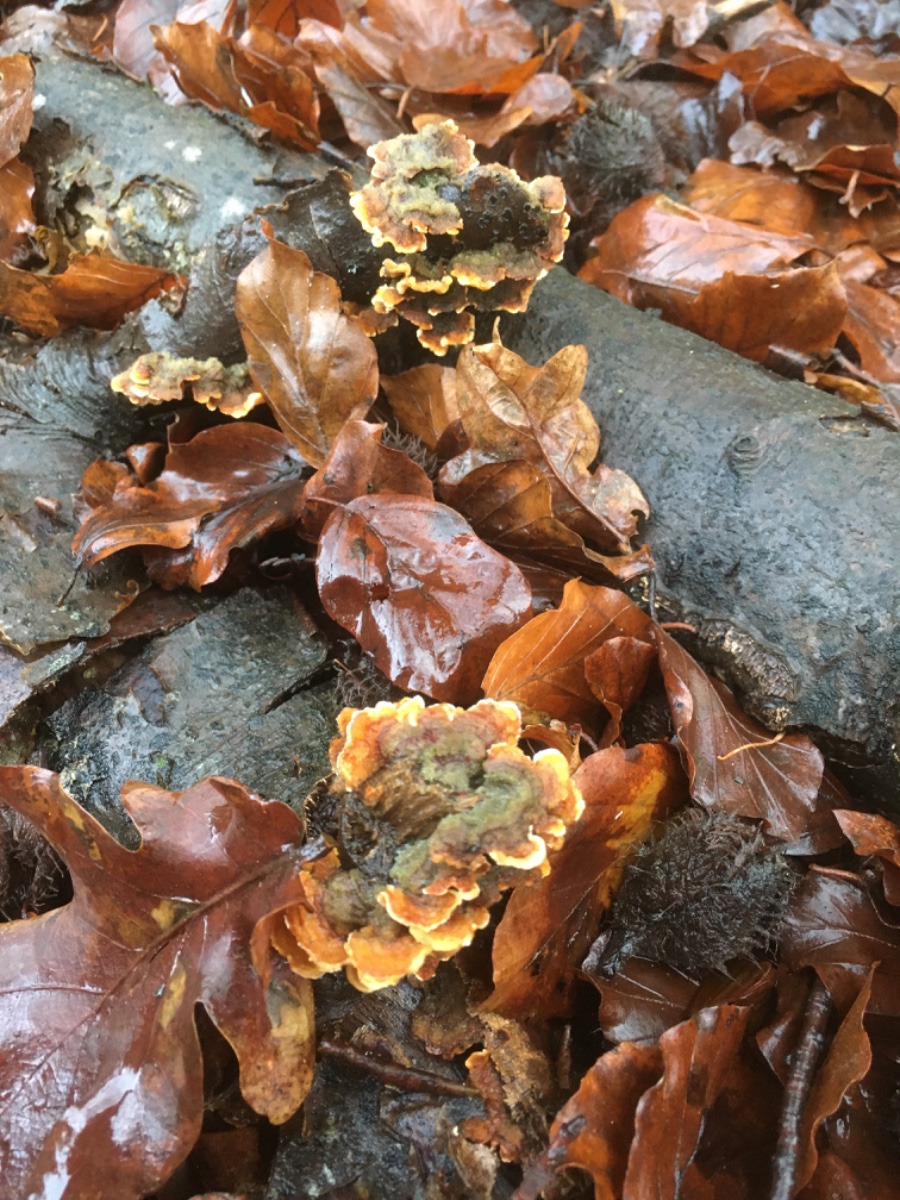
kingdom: Fungi
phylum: Basidiomycota
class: Agaricomycetes
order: Russulales
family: Stereaceae
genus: Stereum
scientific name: Stereum hirsutum
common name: håret lædersvamp
